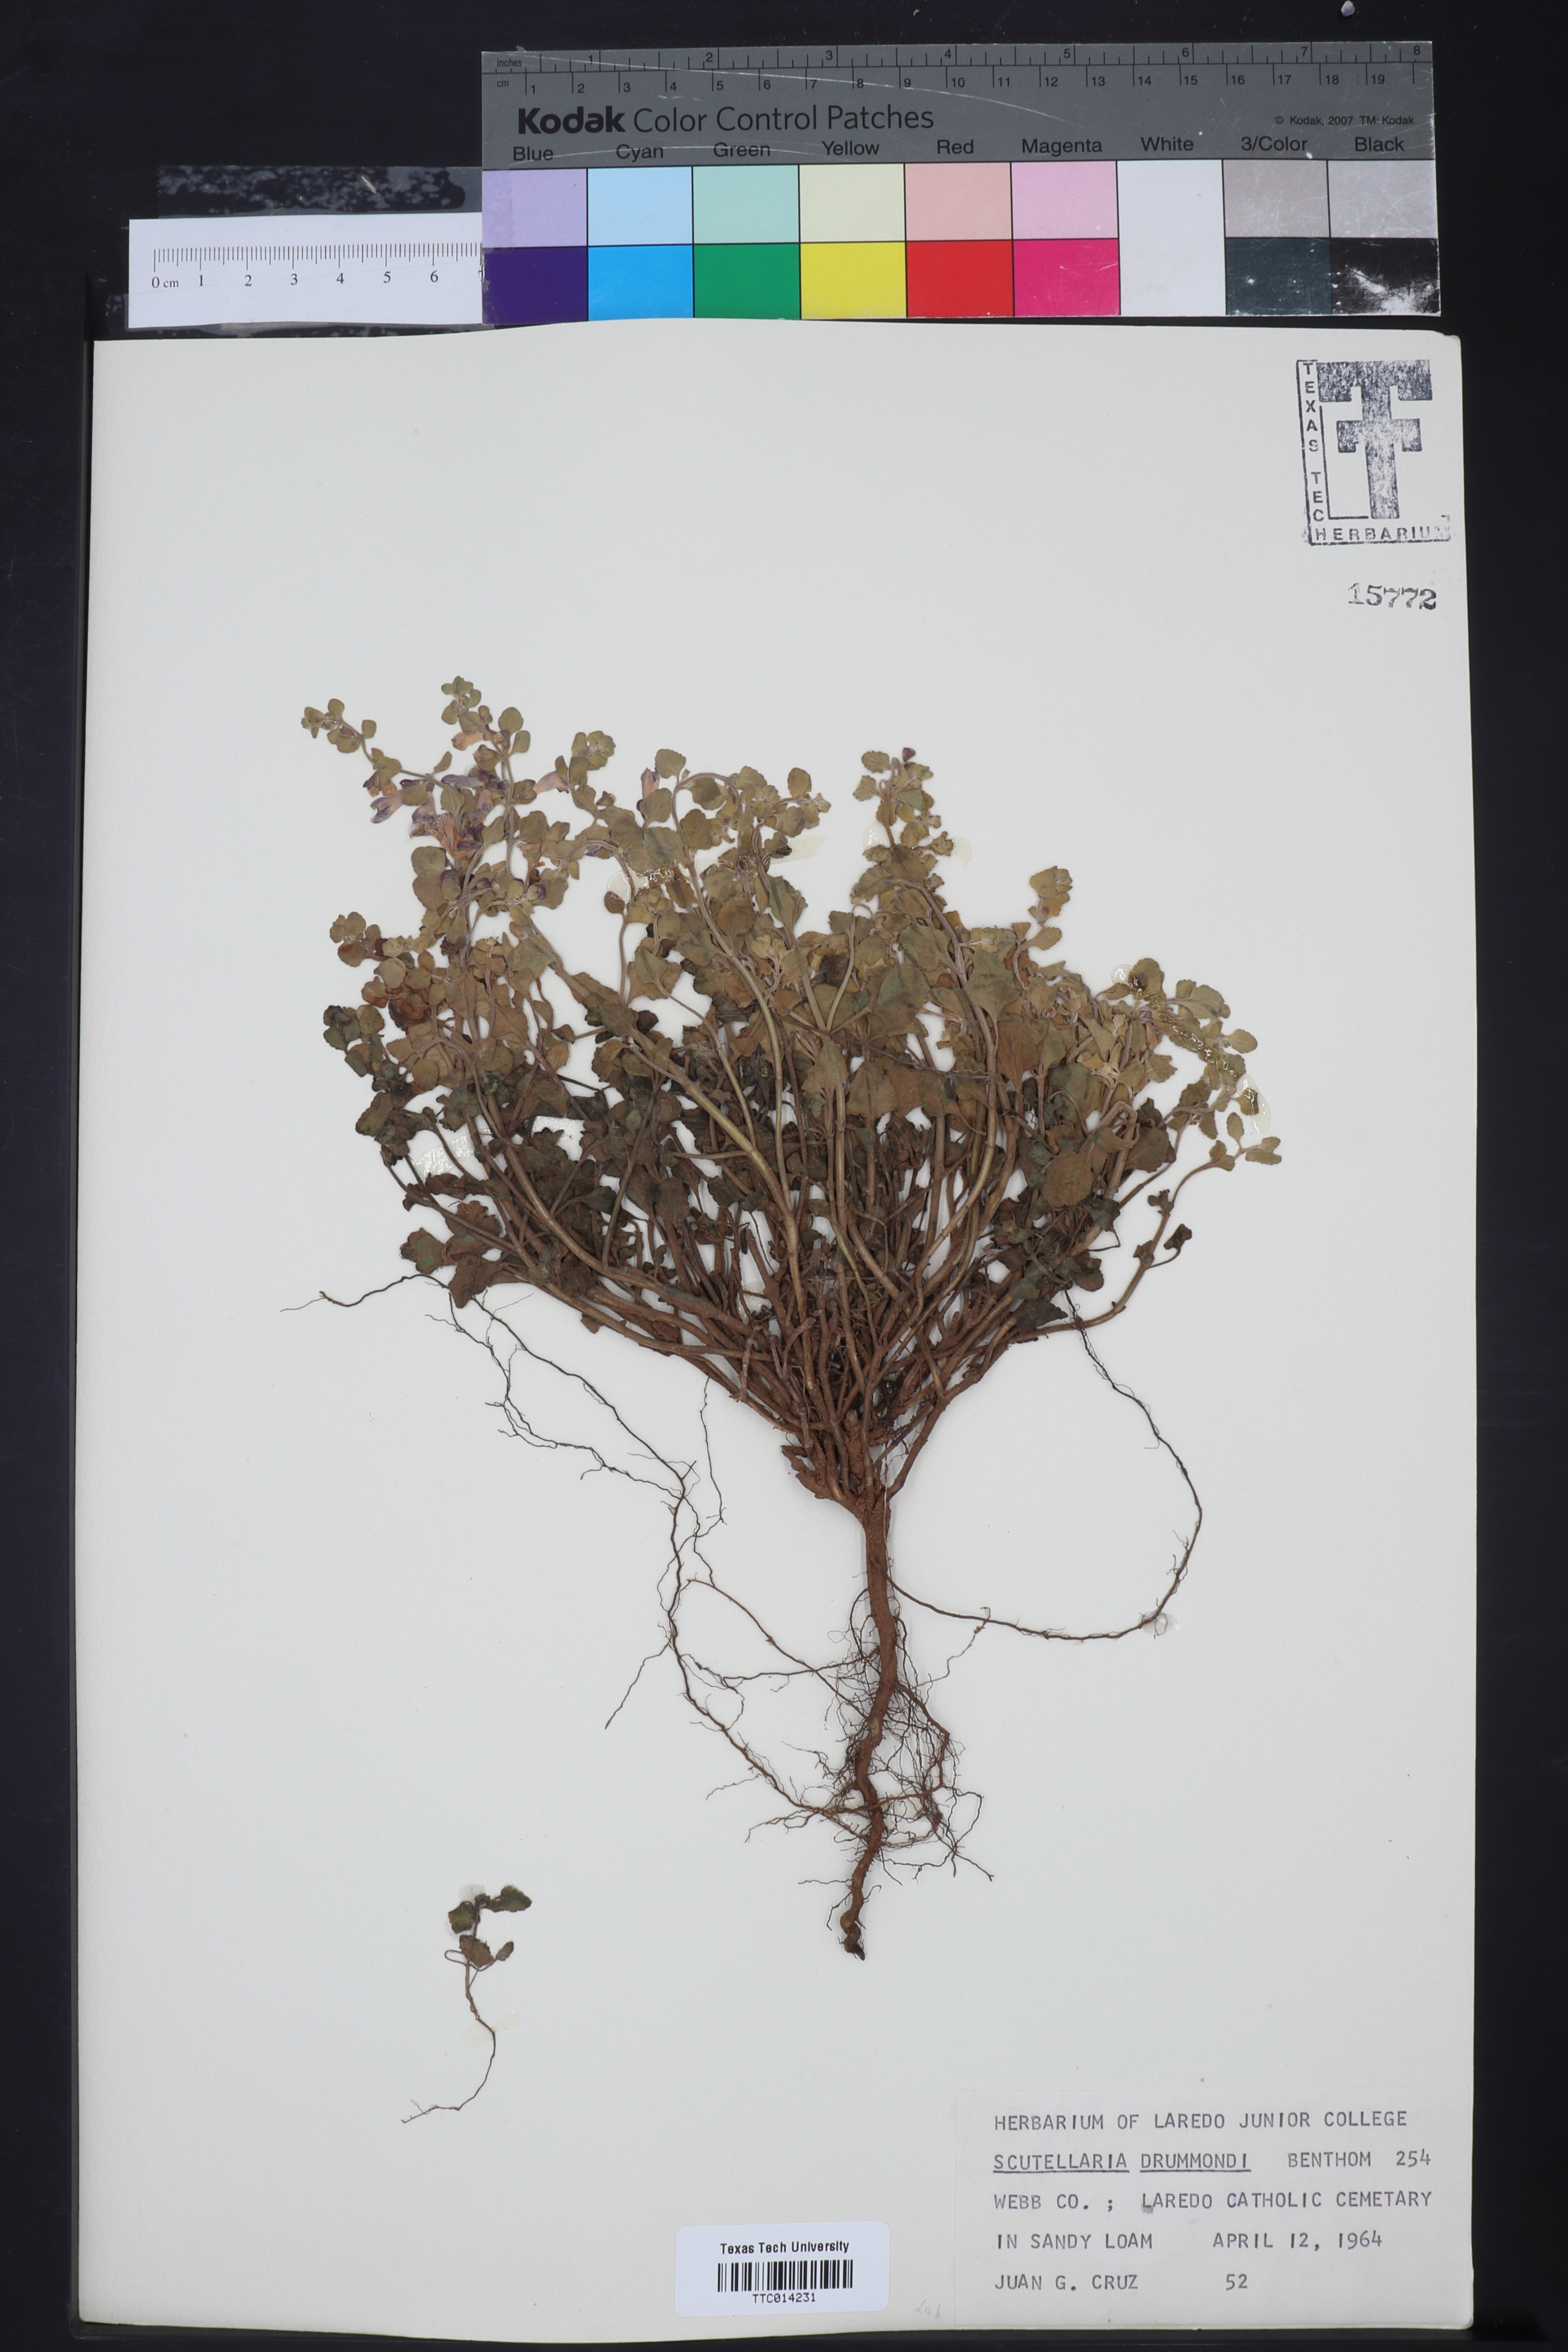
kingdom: Plantae
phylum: Tracheophyta
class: Magnoliopsida
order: Lamiales
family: Lamiaceae
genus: Scutellaria
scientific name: Scutellaria drummondii
